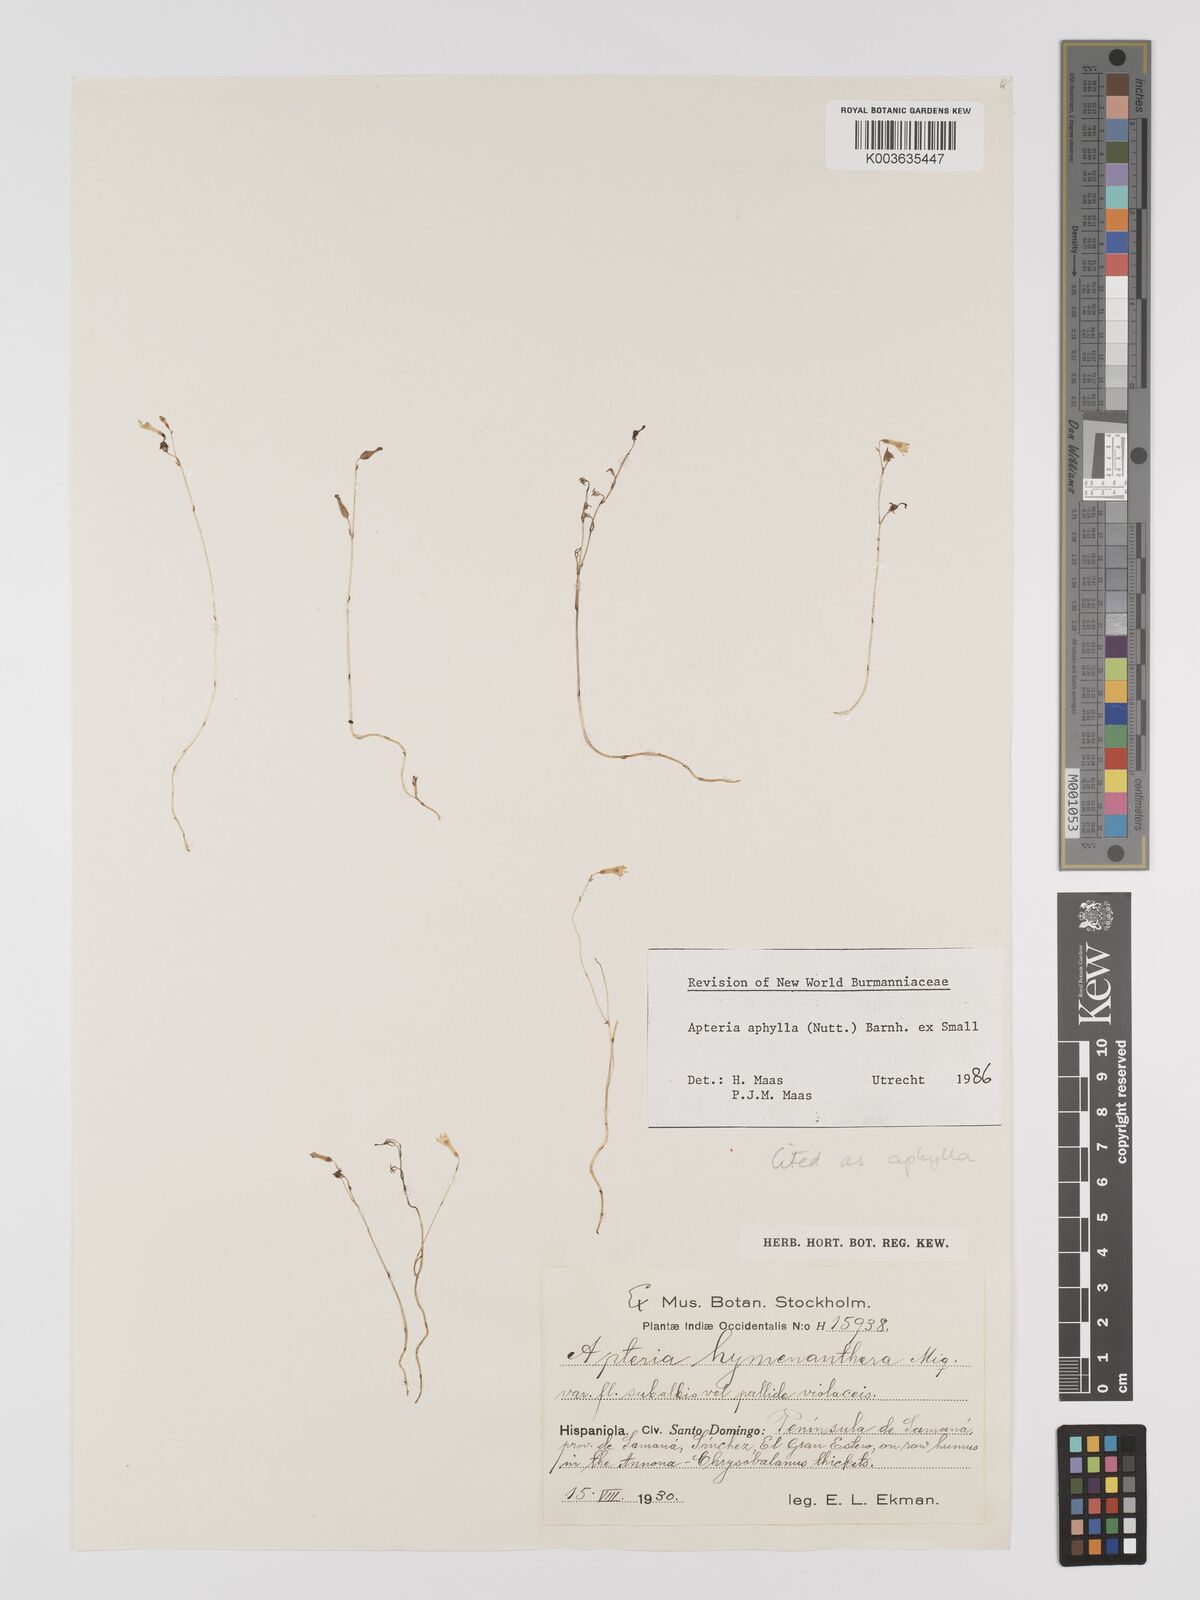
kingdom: Plantae
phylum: Tracheophyta
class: Liliopsida
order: Dioscoreales
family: Burmanniaceae
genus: Apteria
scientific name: Apteria aphylla
